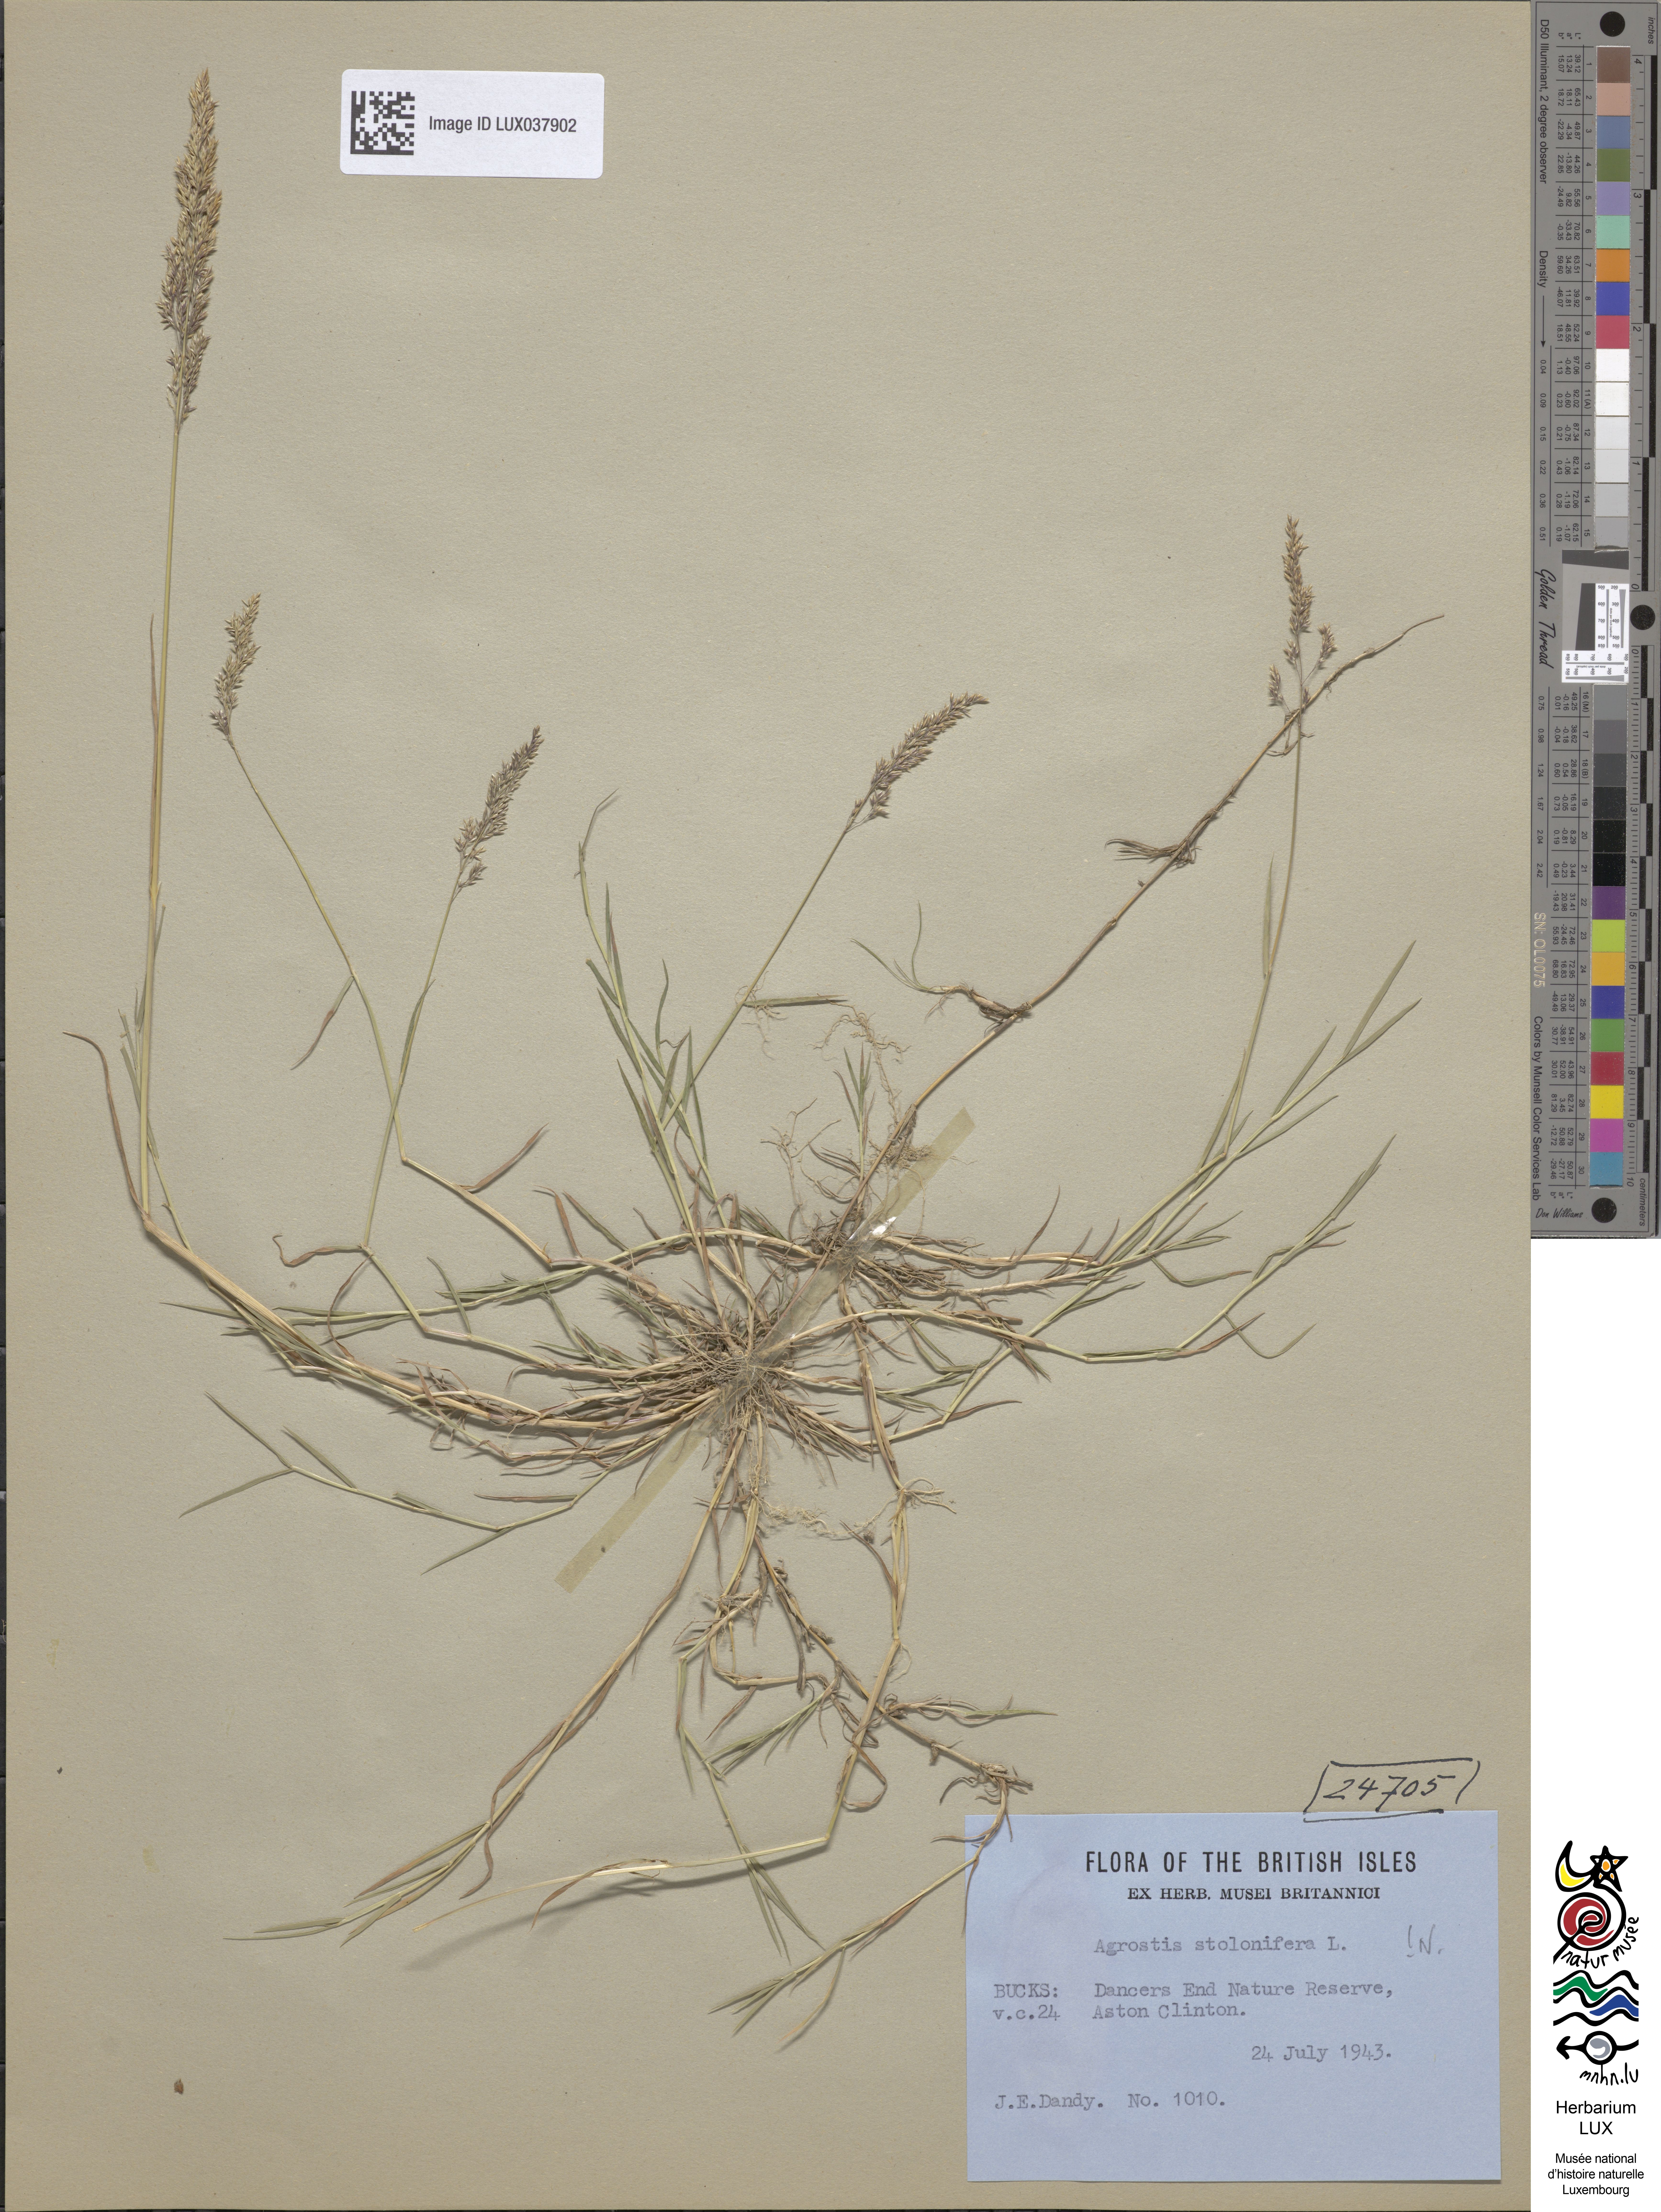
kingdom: Animalia
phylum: Arthropoda
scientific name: Arthropoda
